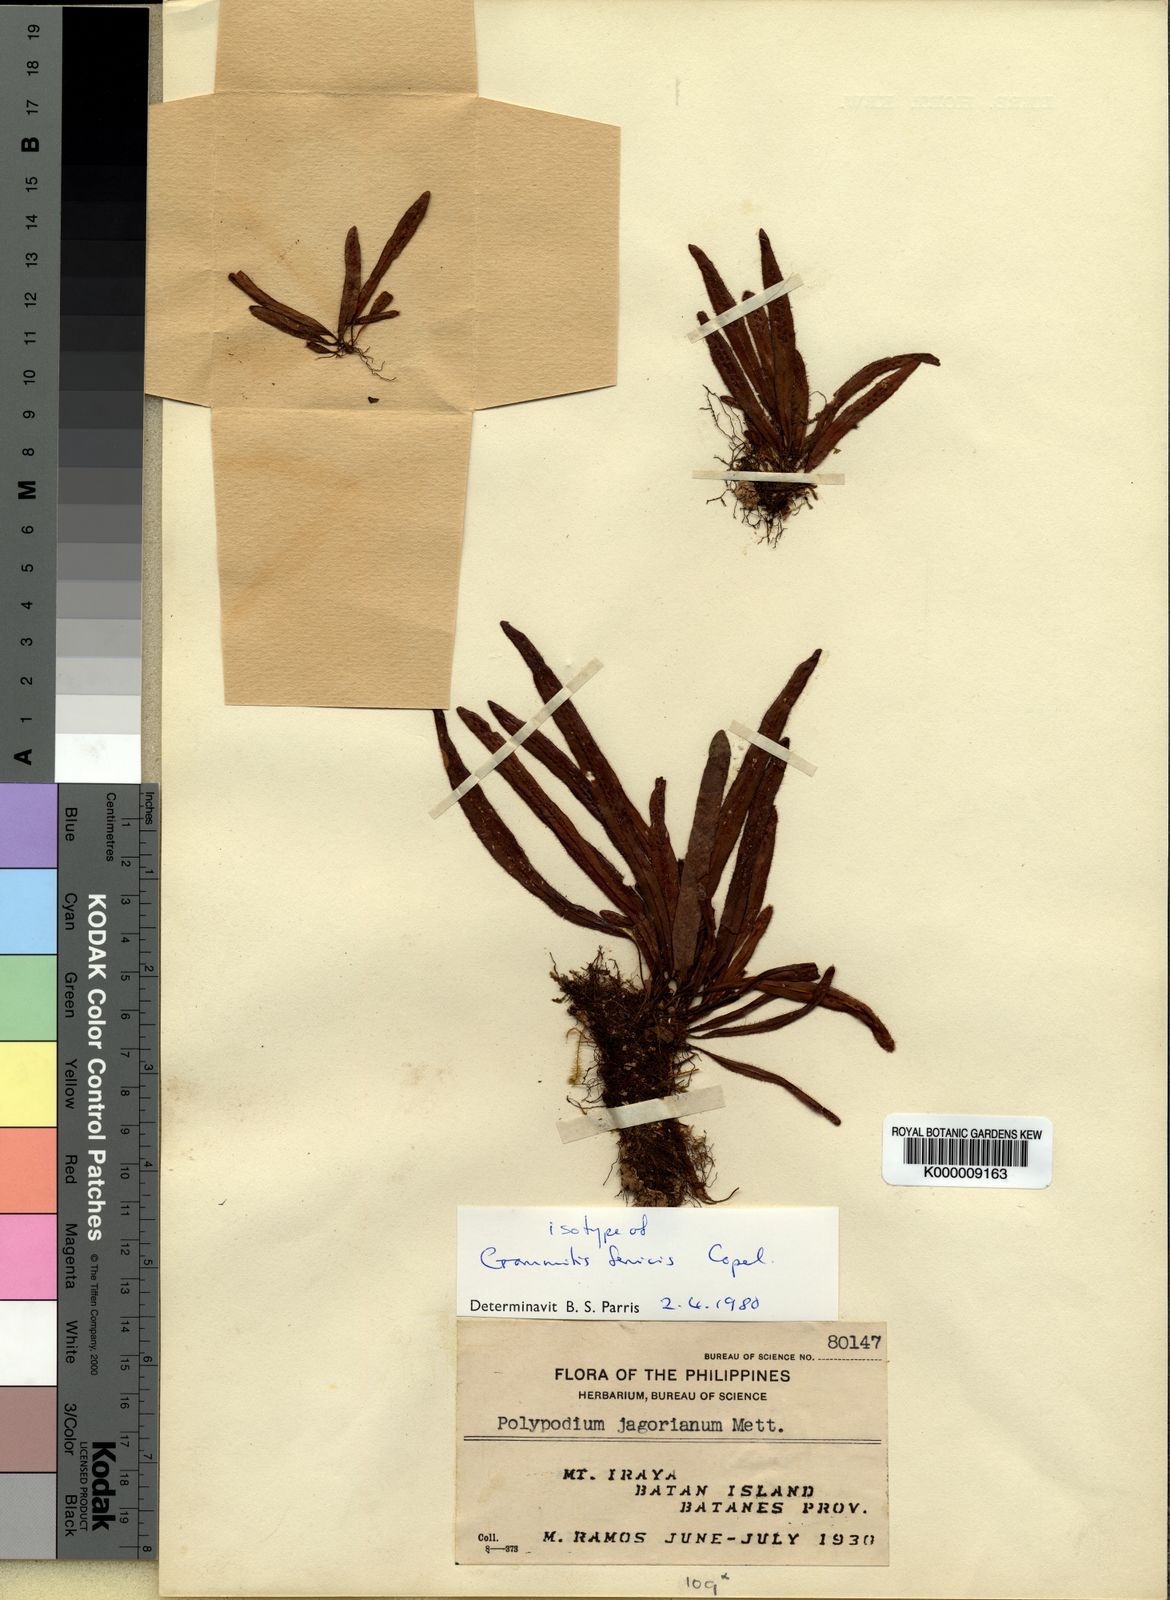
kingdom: Plantae
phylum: Tracheophyta
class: Polypodiopsida
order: Polypodiales
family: Polypodiaceae
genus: Grammitis
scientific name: Grammitis
